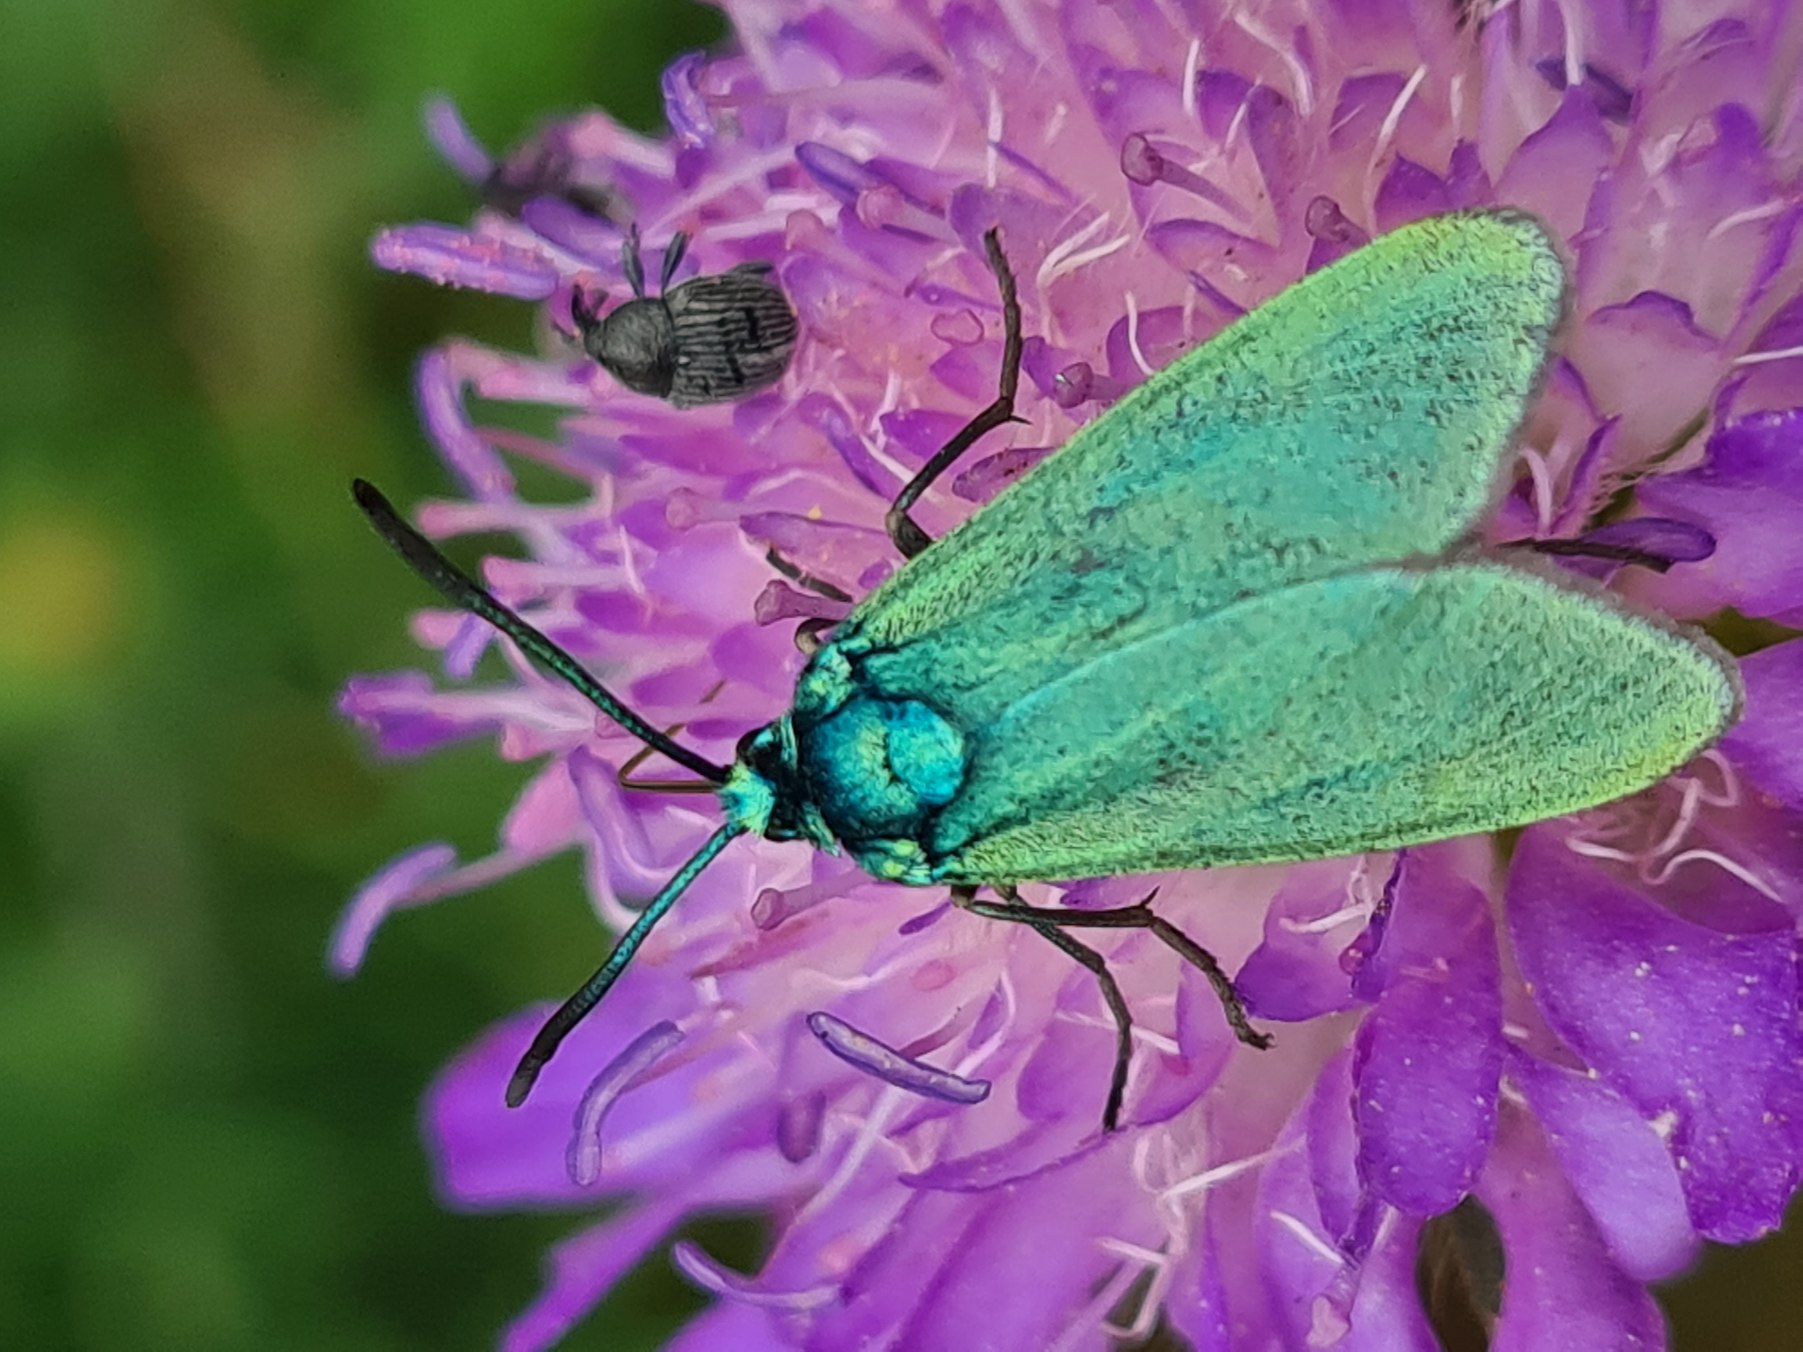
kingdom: Animalia
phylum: Arthropoda
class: Insecta
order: Lepidoptera
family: Zygaenidae
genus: Adscita
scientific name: Adscita statices
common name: Metalvinge
